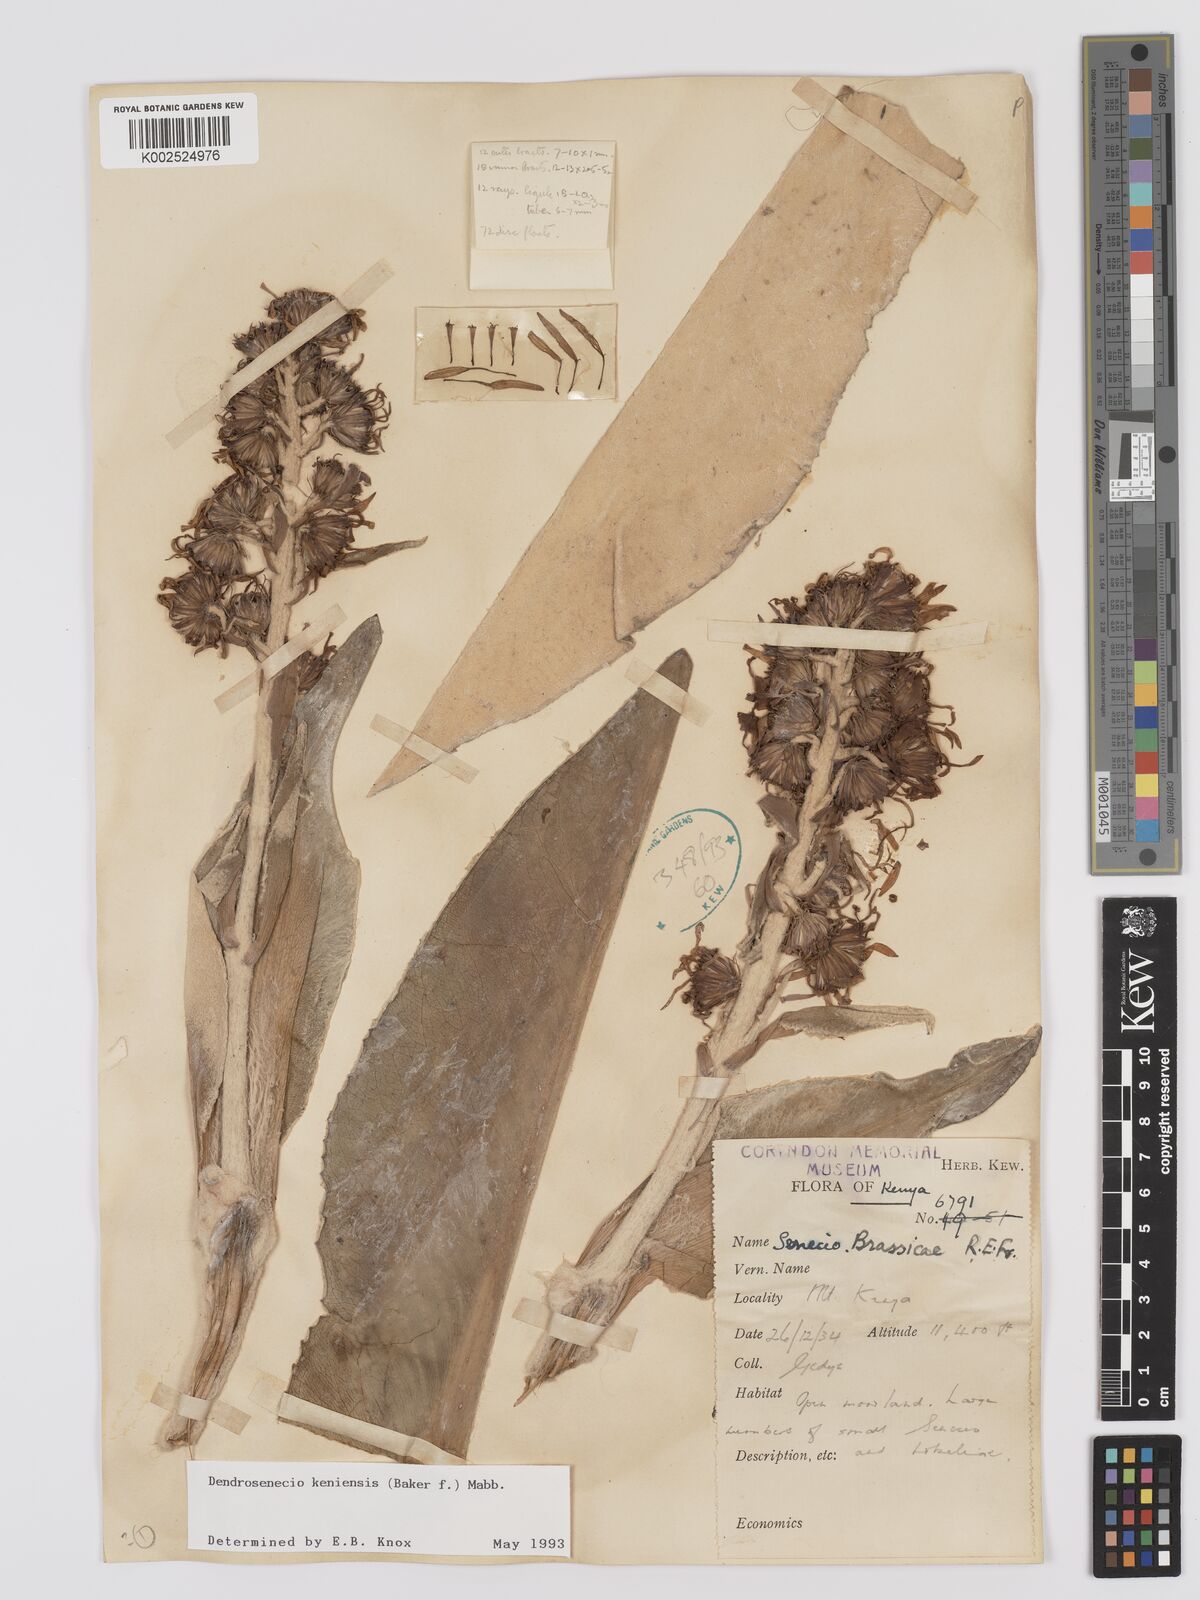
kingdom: Plantae
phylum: Tracheophyta
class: Magnoliopsida
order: Asterales
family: Asteraceae
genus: Dendrosenecio
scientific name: Dendrosenecio keniensis
